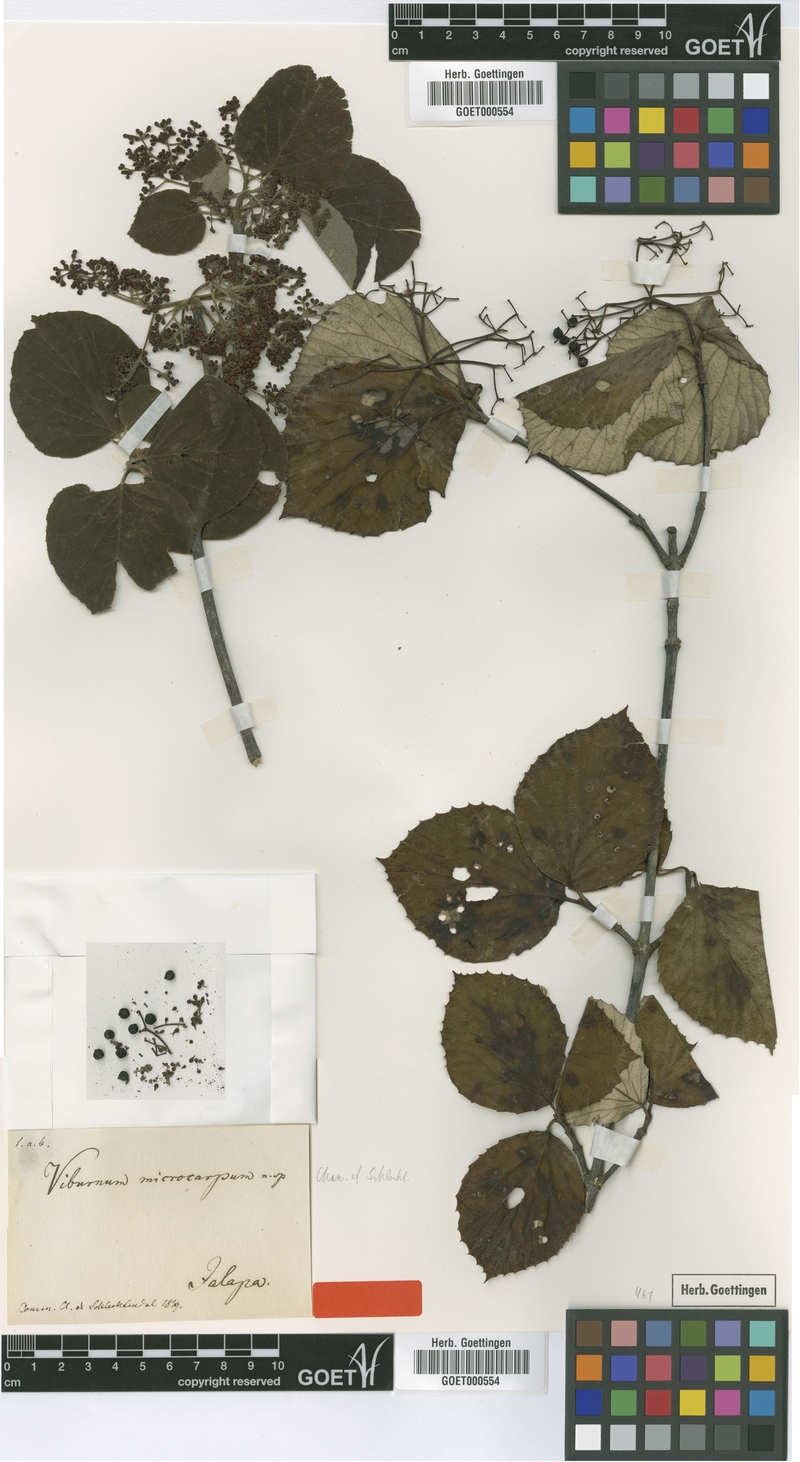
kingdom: Plantae
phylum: Tracheophyta
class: Magnoliopsida
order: Dipsacales
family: Viburnaceae
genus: Viburnum
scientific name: Viburnum microcarpum
